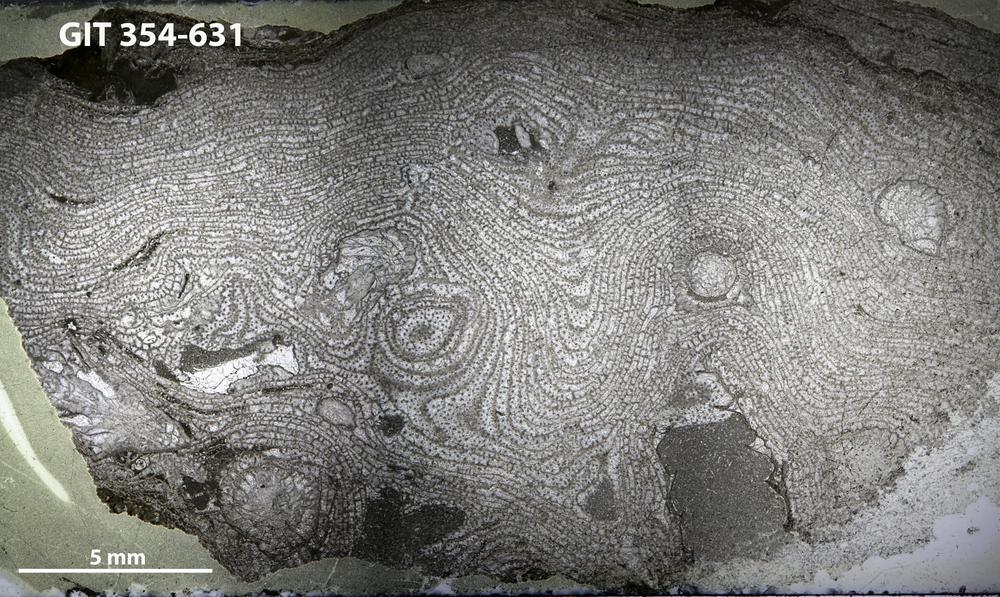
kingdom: Animalia
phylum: Porifera
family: Stromatoporellidae
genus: Simplexodictyon
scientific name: Simplexodictyon
